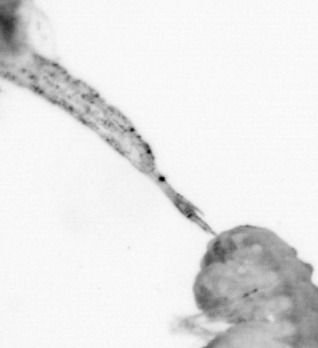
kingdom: Animalia
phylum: Arthropoda
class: Malacostraca
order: Decapoda
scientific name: Decapoda
